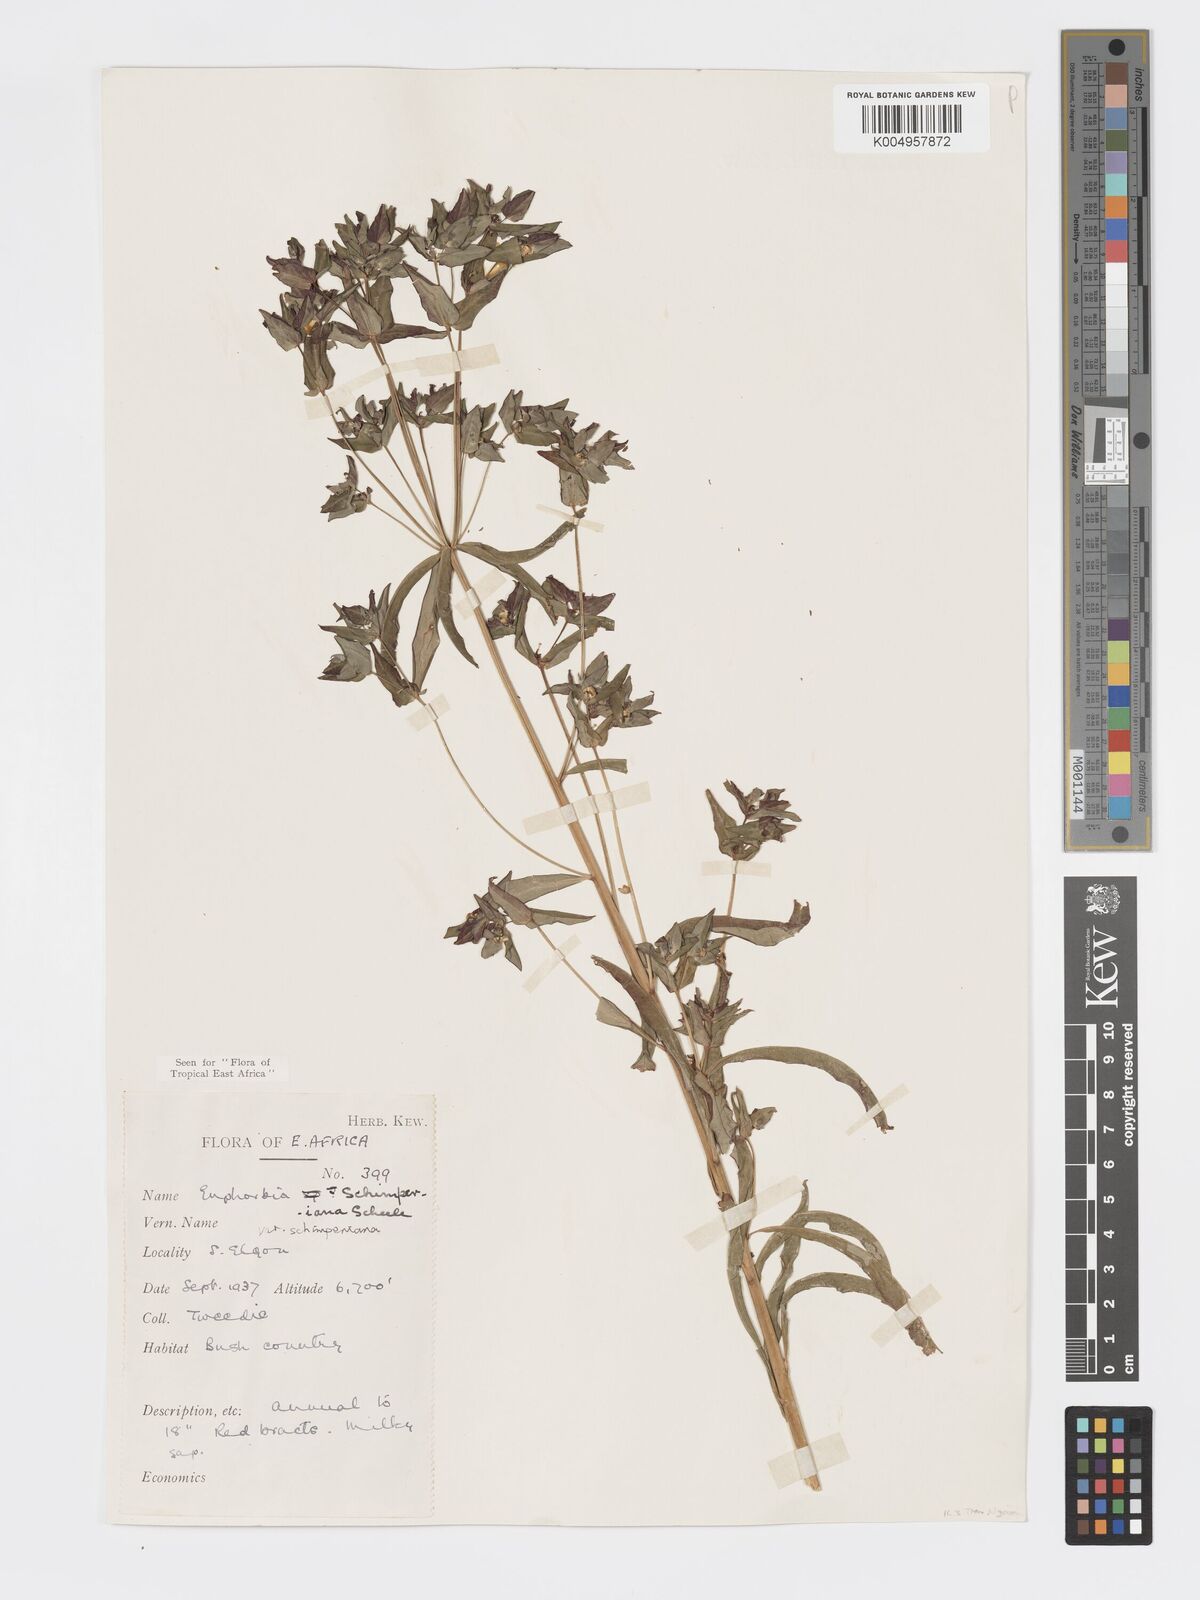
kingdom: Plantae
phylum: Tracheophyta
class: Magnoliopsida
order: Malpighiales
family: Euphorbiaceae
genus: Euphorbia
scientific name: Euphorbia schimperiana
